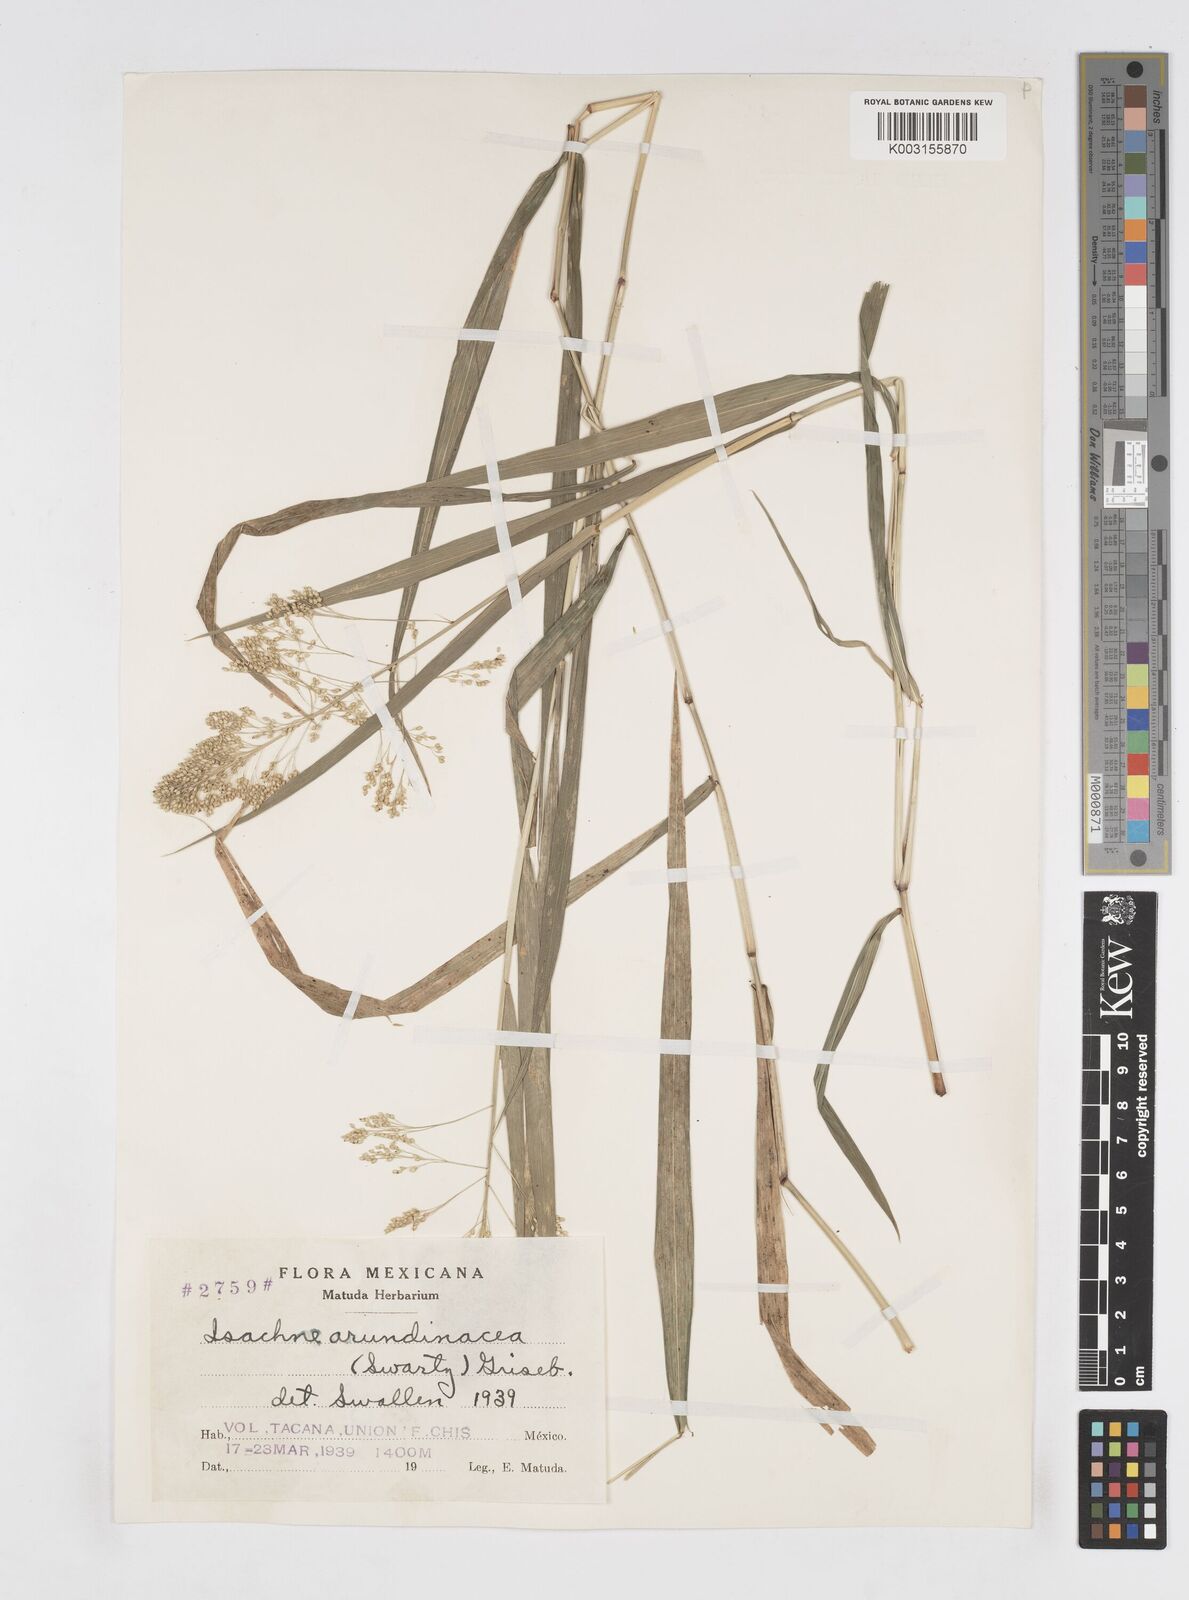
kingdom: Plantae
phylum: Tracheophyta
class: Liliopsida
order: Poales
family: Poaceae
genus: Isachne
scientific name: Isachne arundinacea
